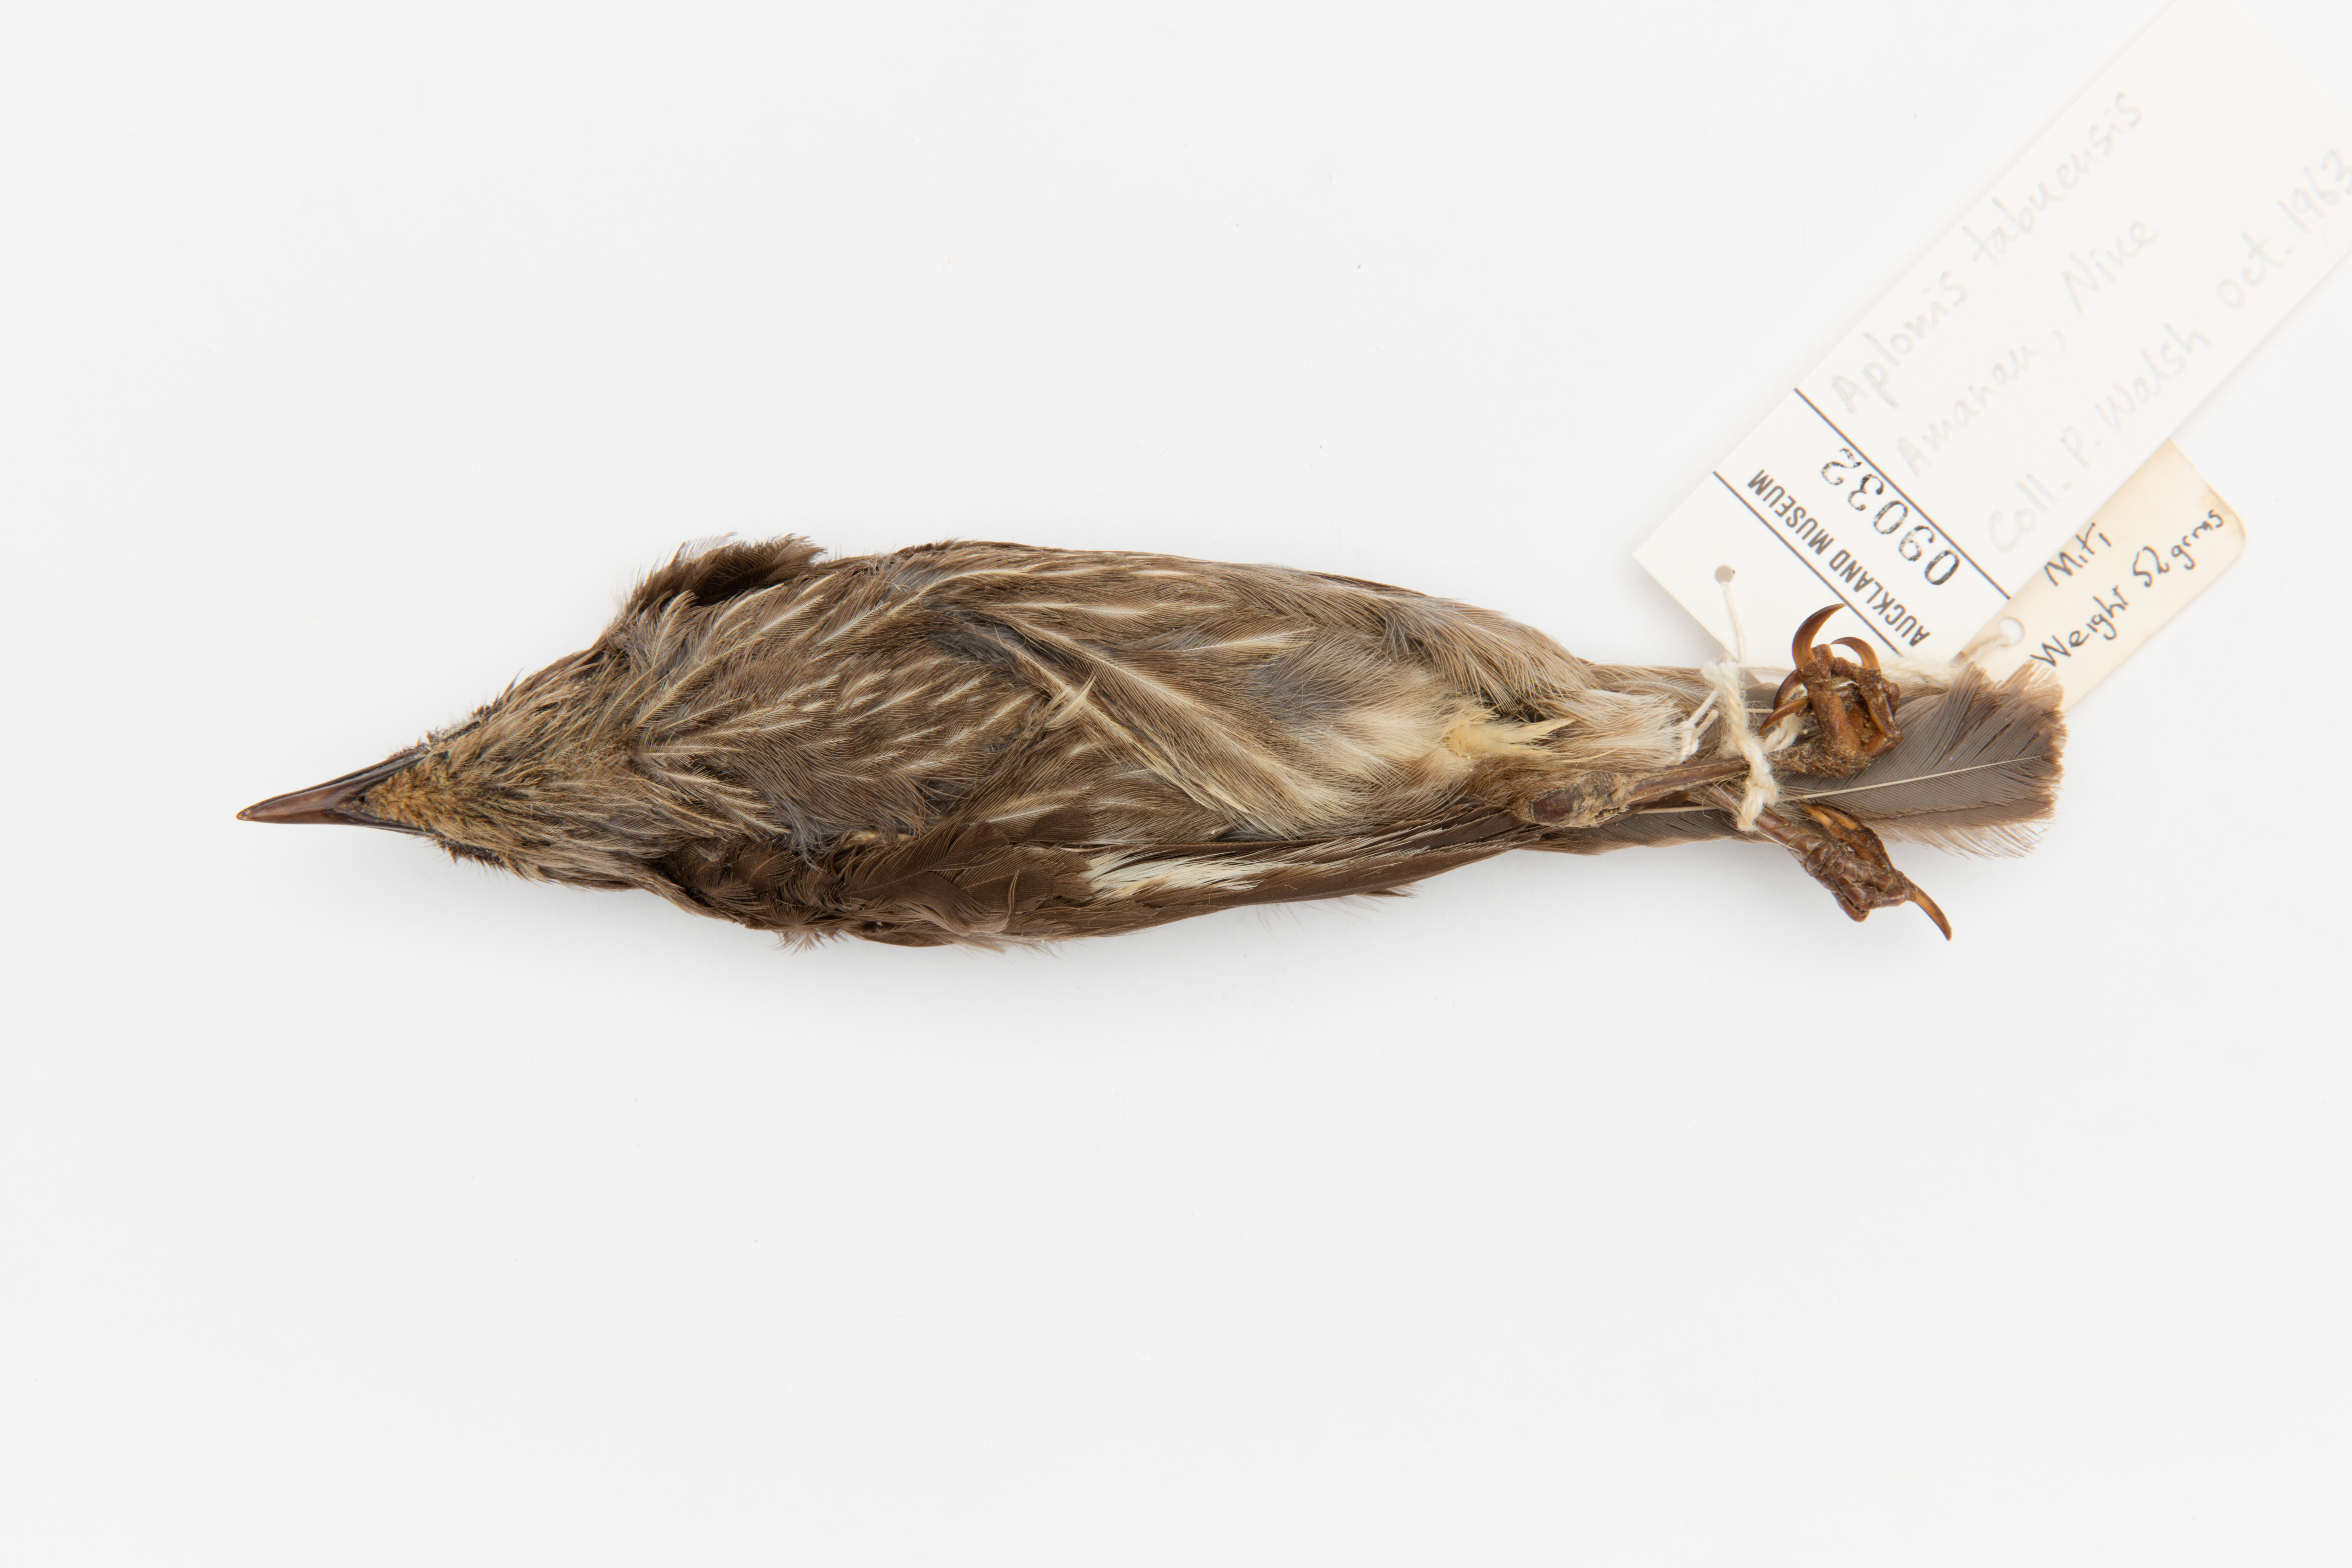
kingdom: Animalia
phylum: Chordata
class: Aves
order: Passeriformes
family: Sturnidae
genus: Aplonis
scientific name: Aplonis tabuensis
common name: Polynesian starling
